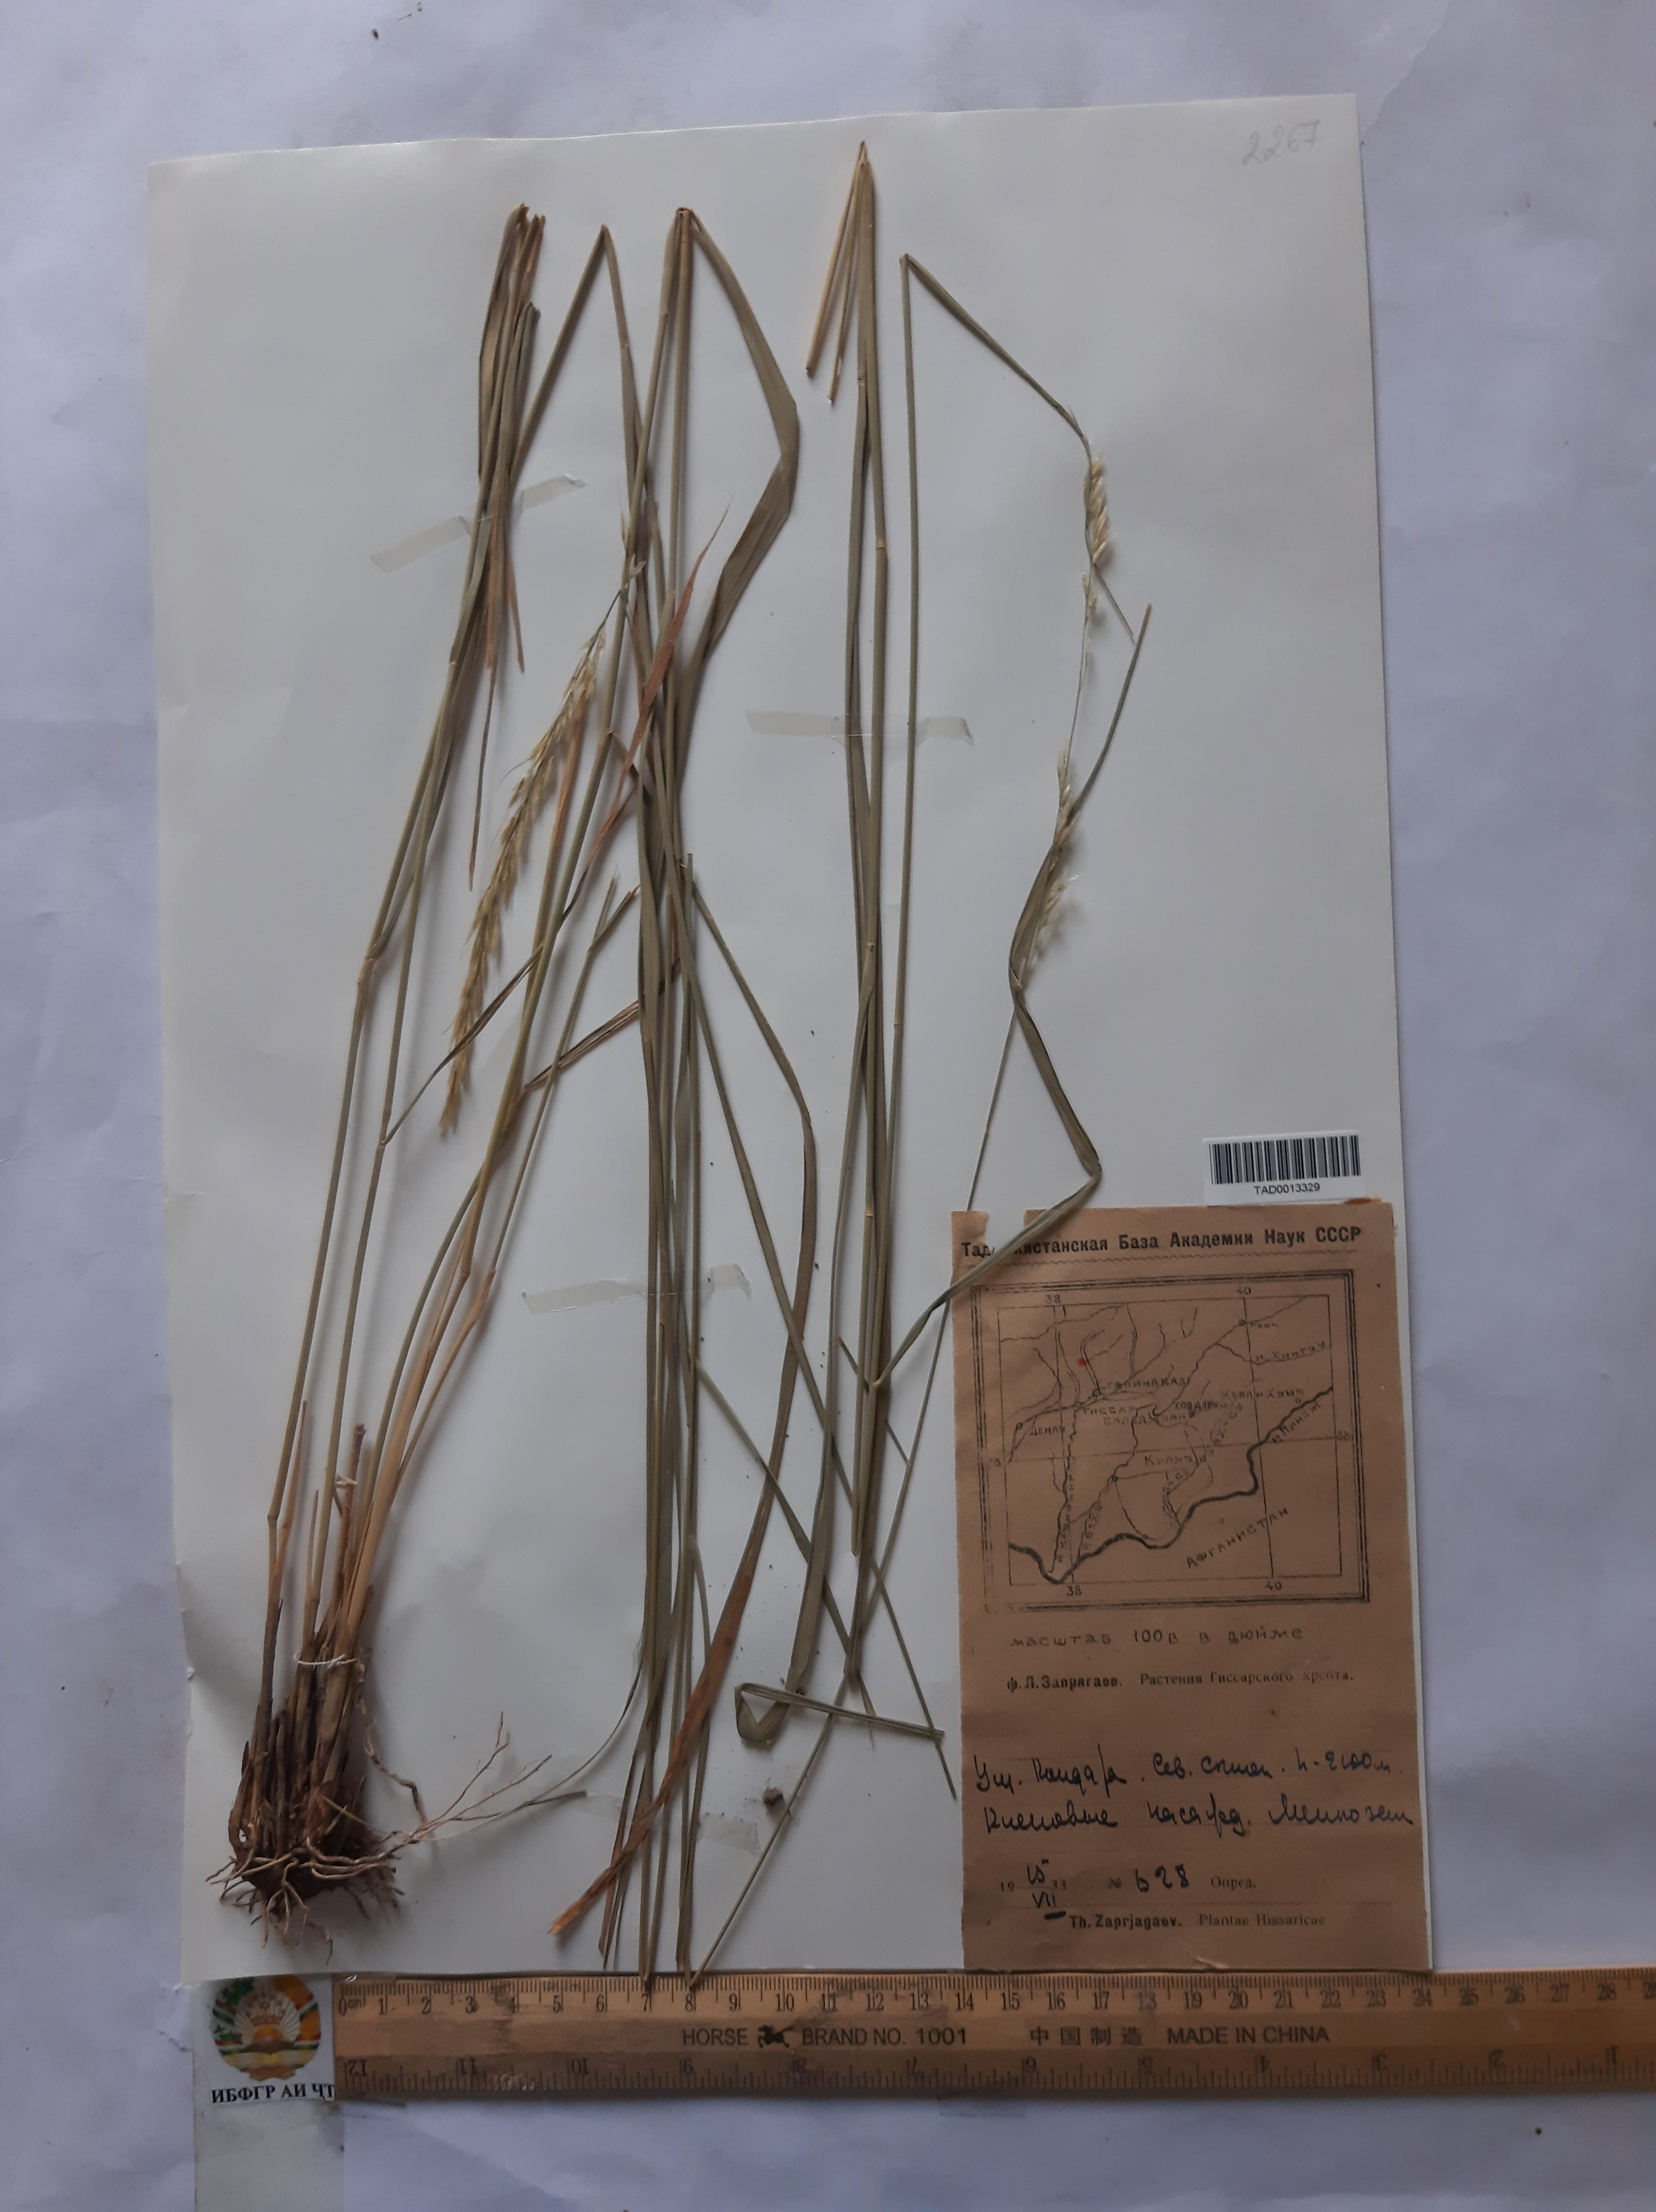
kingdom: Plantae
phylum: Tracheophyta
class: Liliopsida
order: Poales
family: Poaceae
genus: Achnatherum
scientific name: Achnatherum turcomanicum
